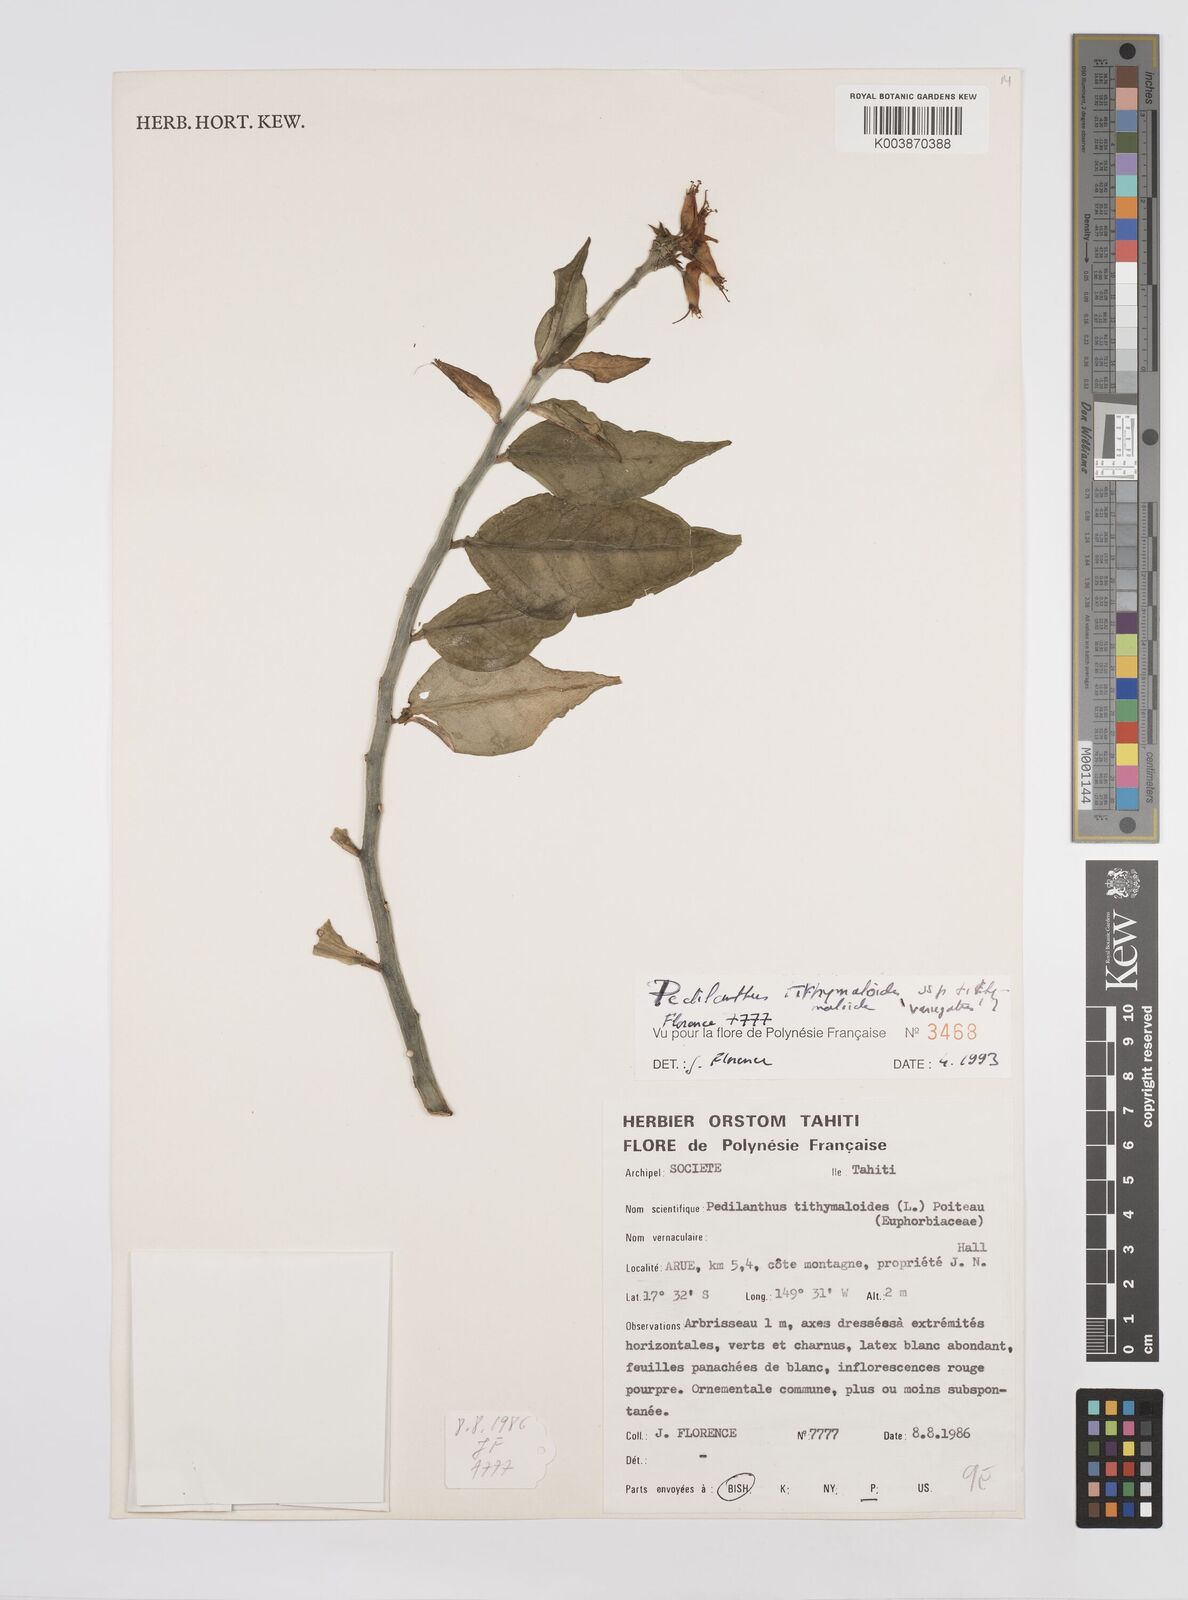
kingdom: Plantae
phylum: Tracheophyta
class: Magnoliopsida
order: Malpighiales
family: Euphorbiaceae
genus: Euphorbia
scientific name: Euphorbia tithymaloides
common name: Slipperplant
